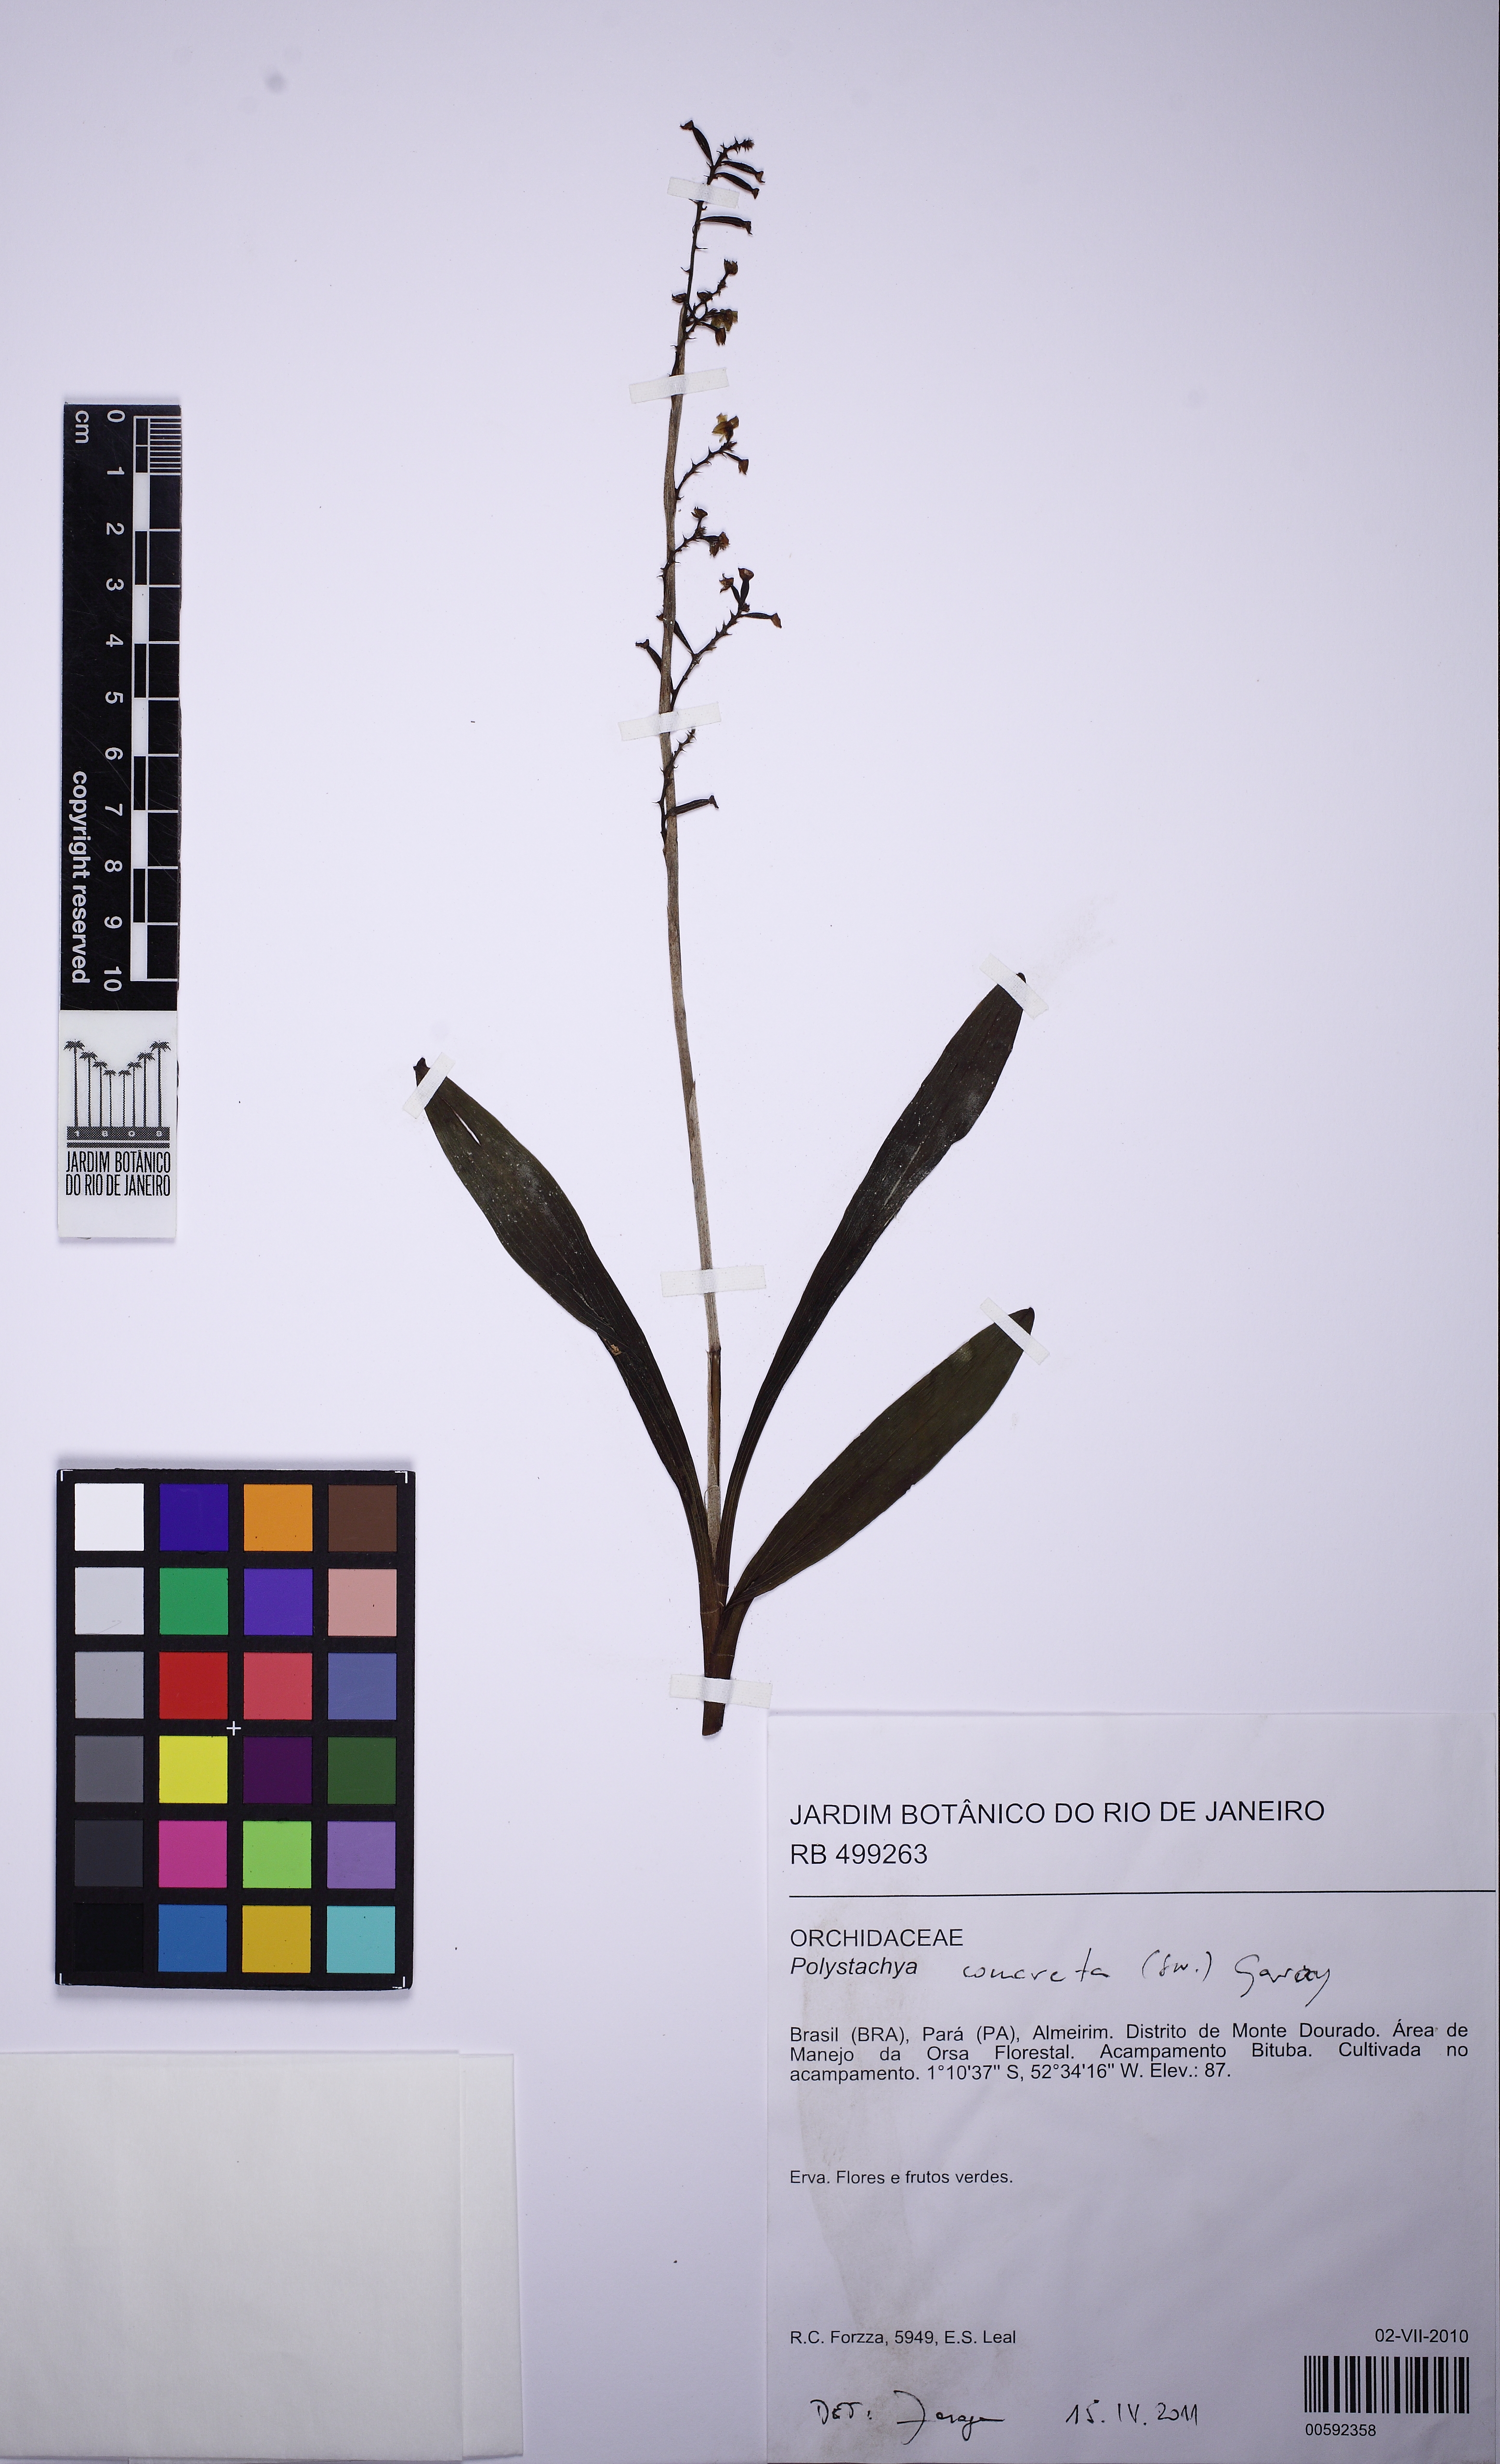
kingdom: Plantae
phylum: Tracheophyta
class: Liliopsida
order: Asparagales
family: Orchidaceae
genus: Polystachya
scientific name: Polystachya concreta
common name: Greater yellowspike orchid
